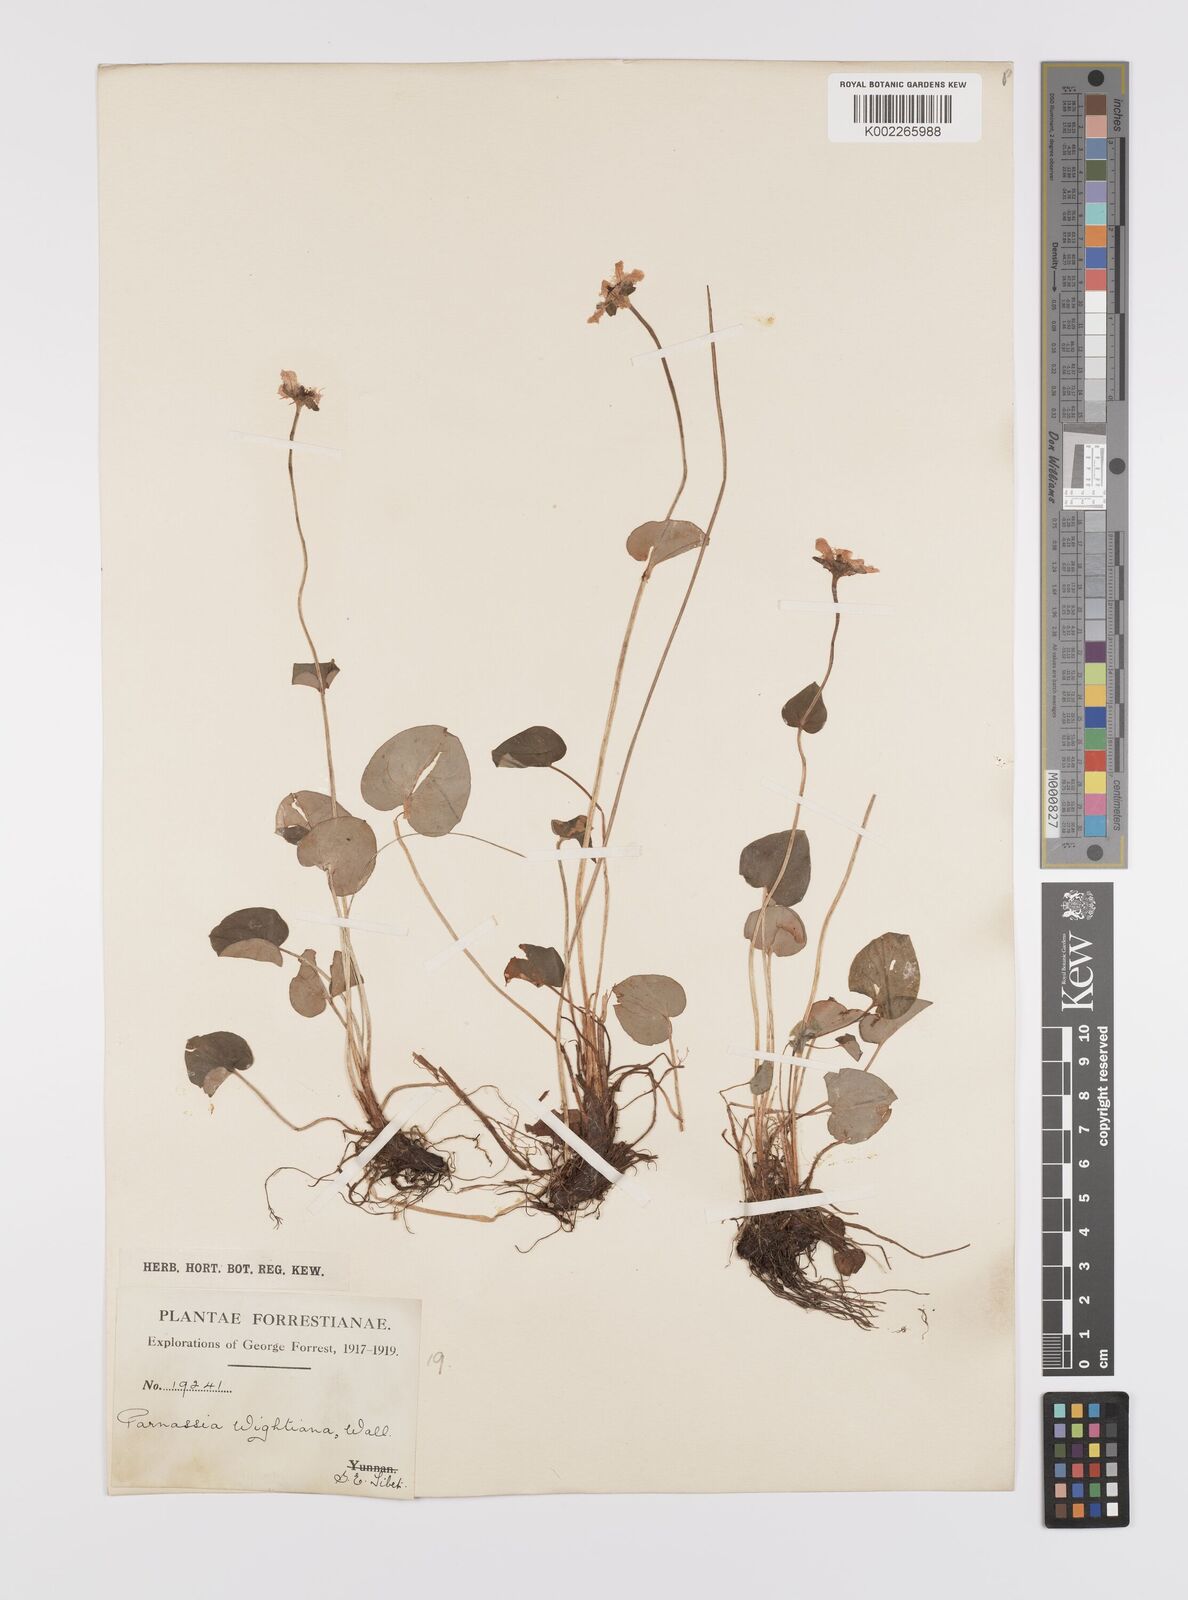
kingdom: Plantae
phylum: Tracheophyta
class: Magnoliopsida
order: Celastrales
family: Parnassiaceae
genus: Parnassia
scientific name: Parnassia wightiana
